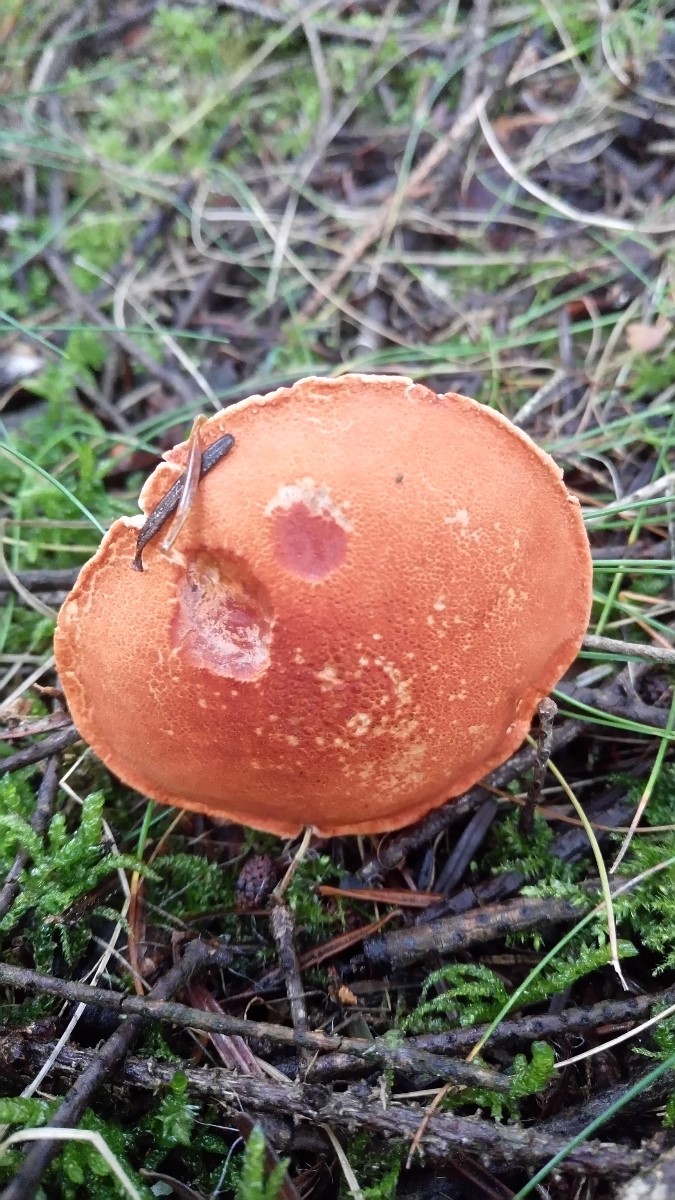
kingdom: Fungi
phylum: Basidiomycota
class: Agaricomycetes
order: Agaricales
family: Agaricaceae
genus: Cystodermella
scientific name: Cystodermella cinnabarina
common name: cinnober-grynhat
